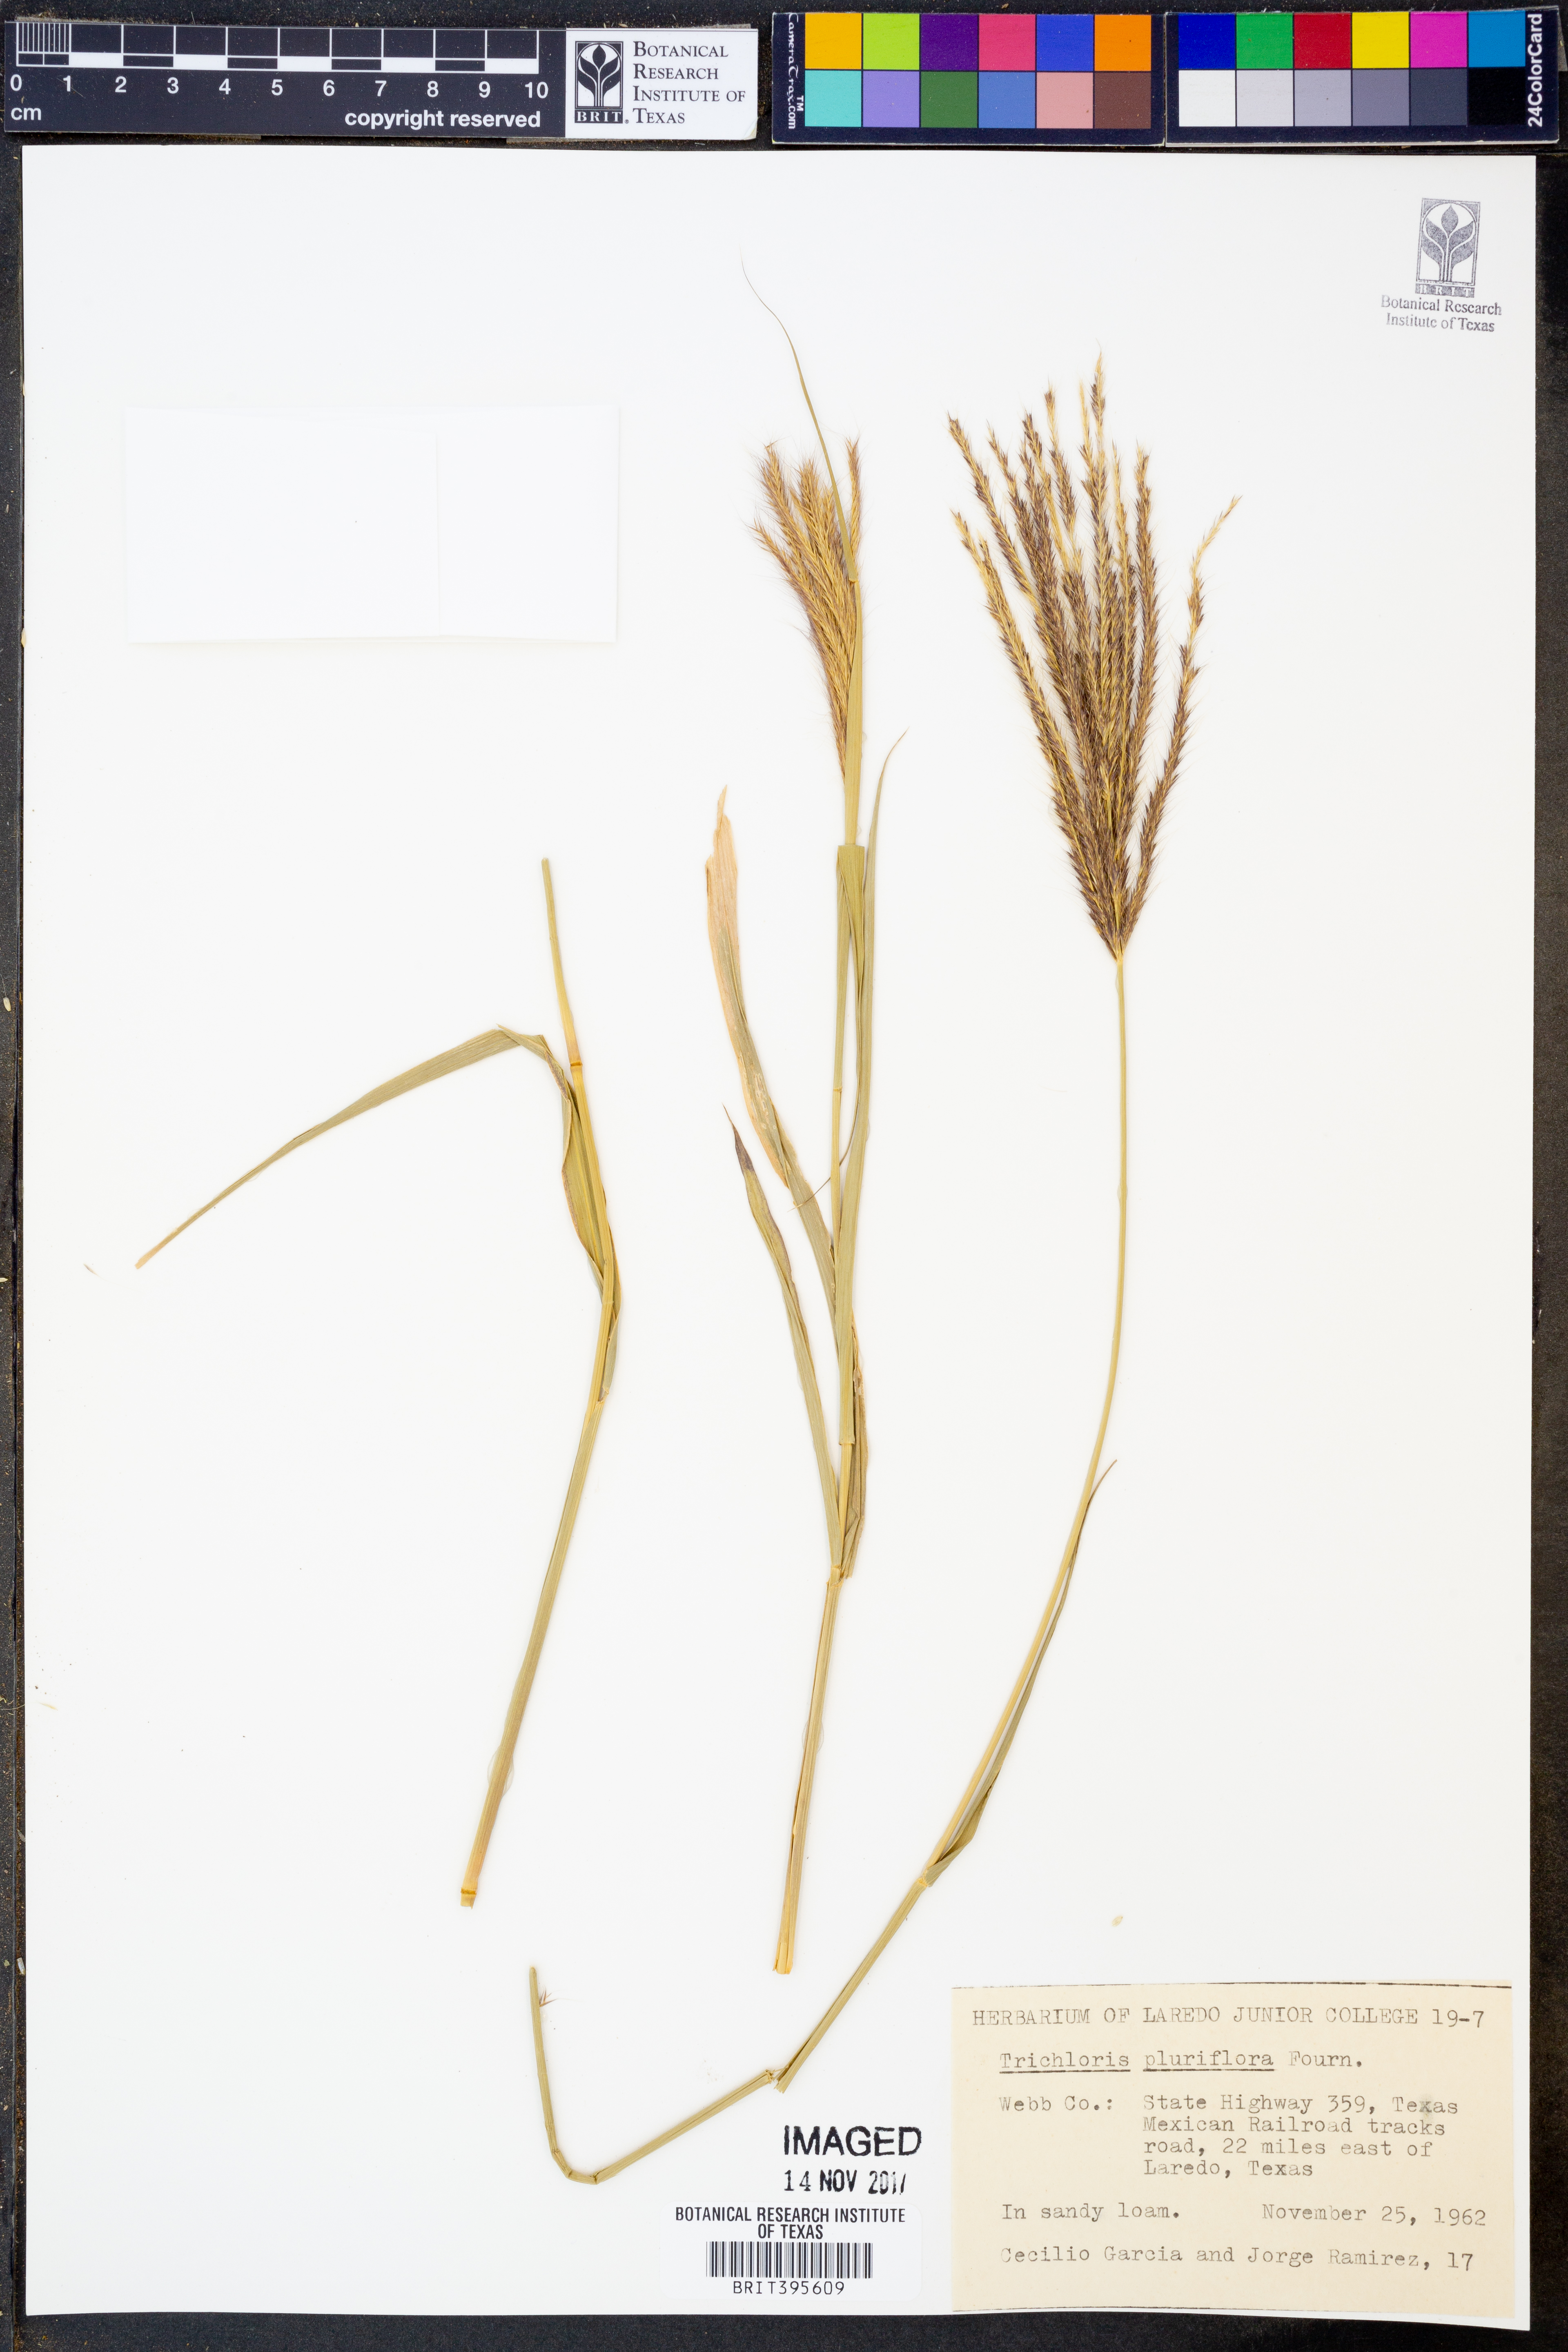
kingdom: Plantae
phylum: Tracheophyta
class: Liliopsida
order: Poales
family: Poaceae
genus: Leptochloa
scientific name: Leptochloa pluriflora
